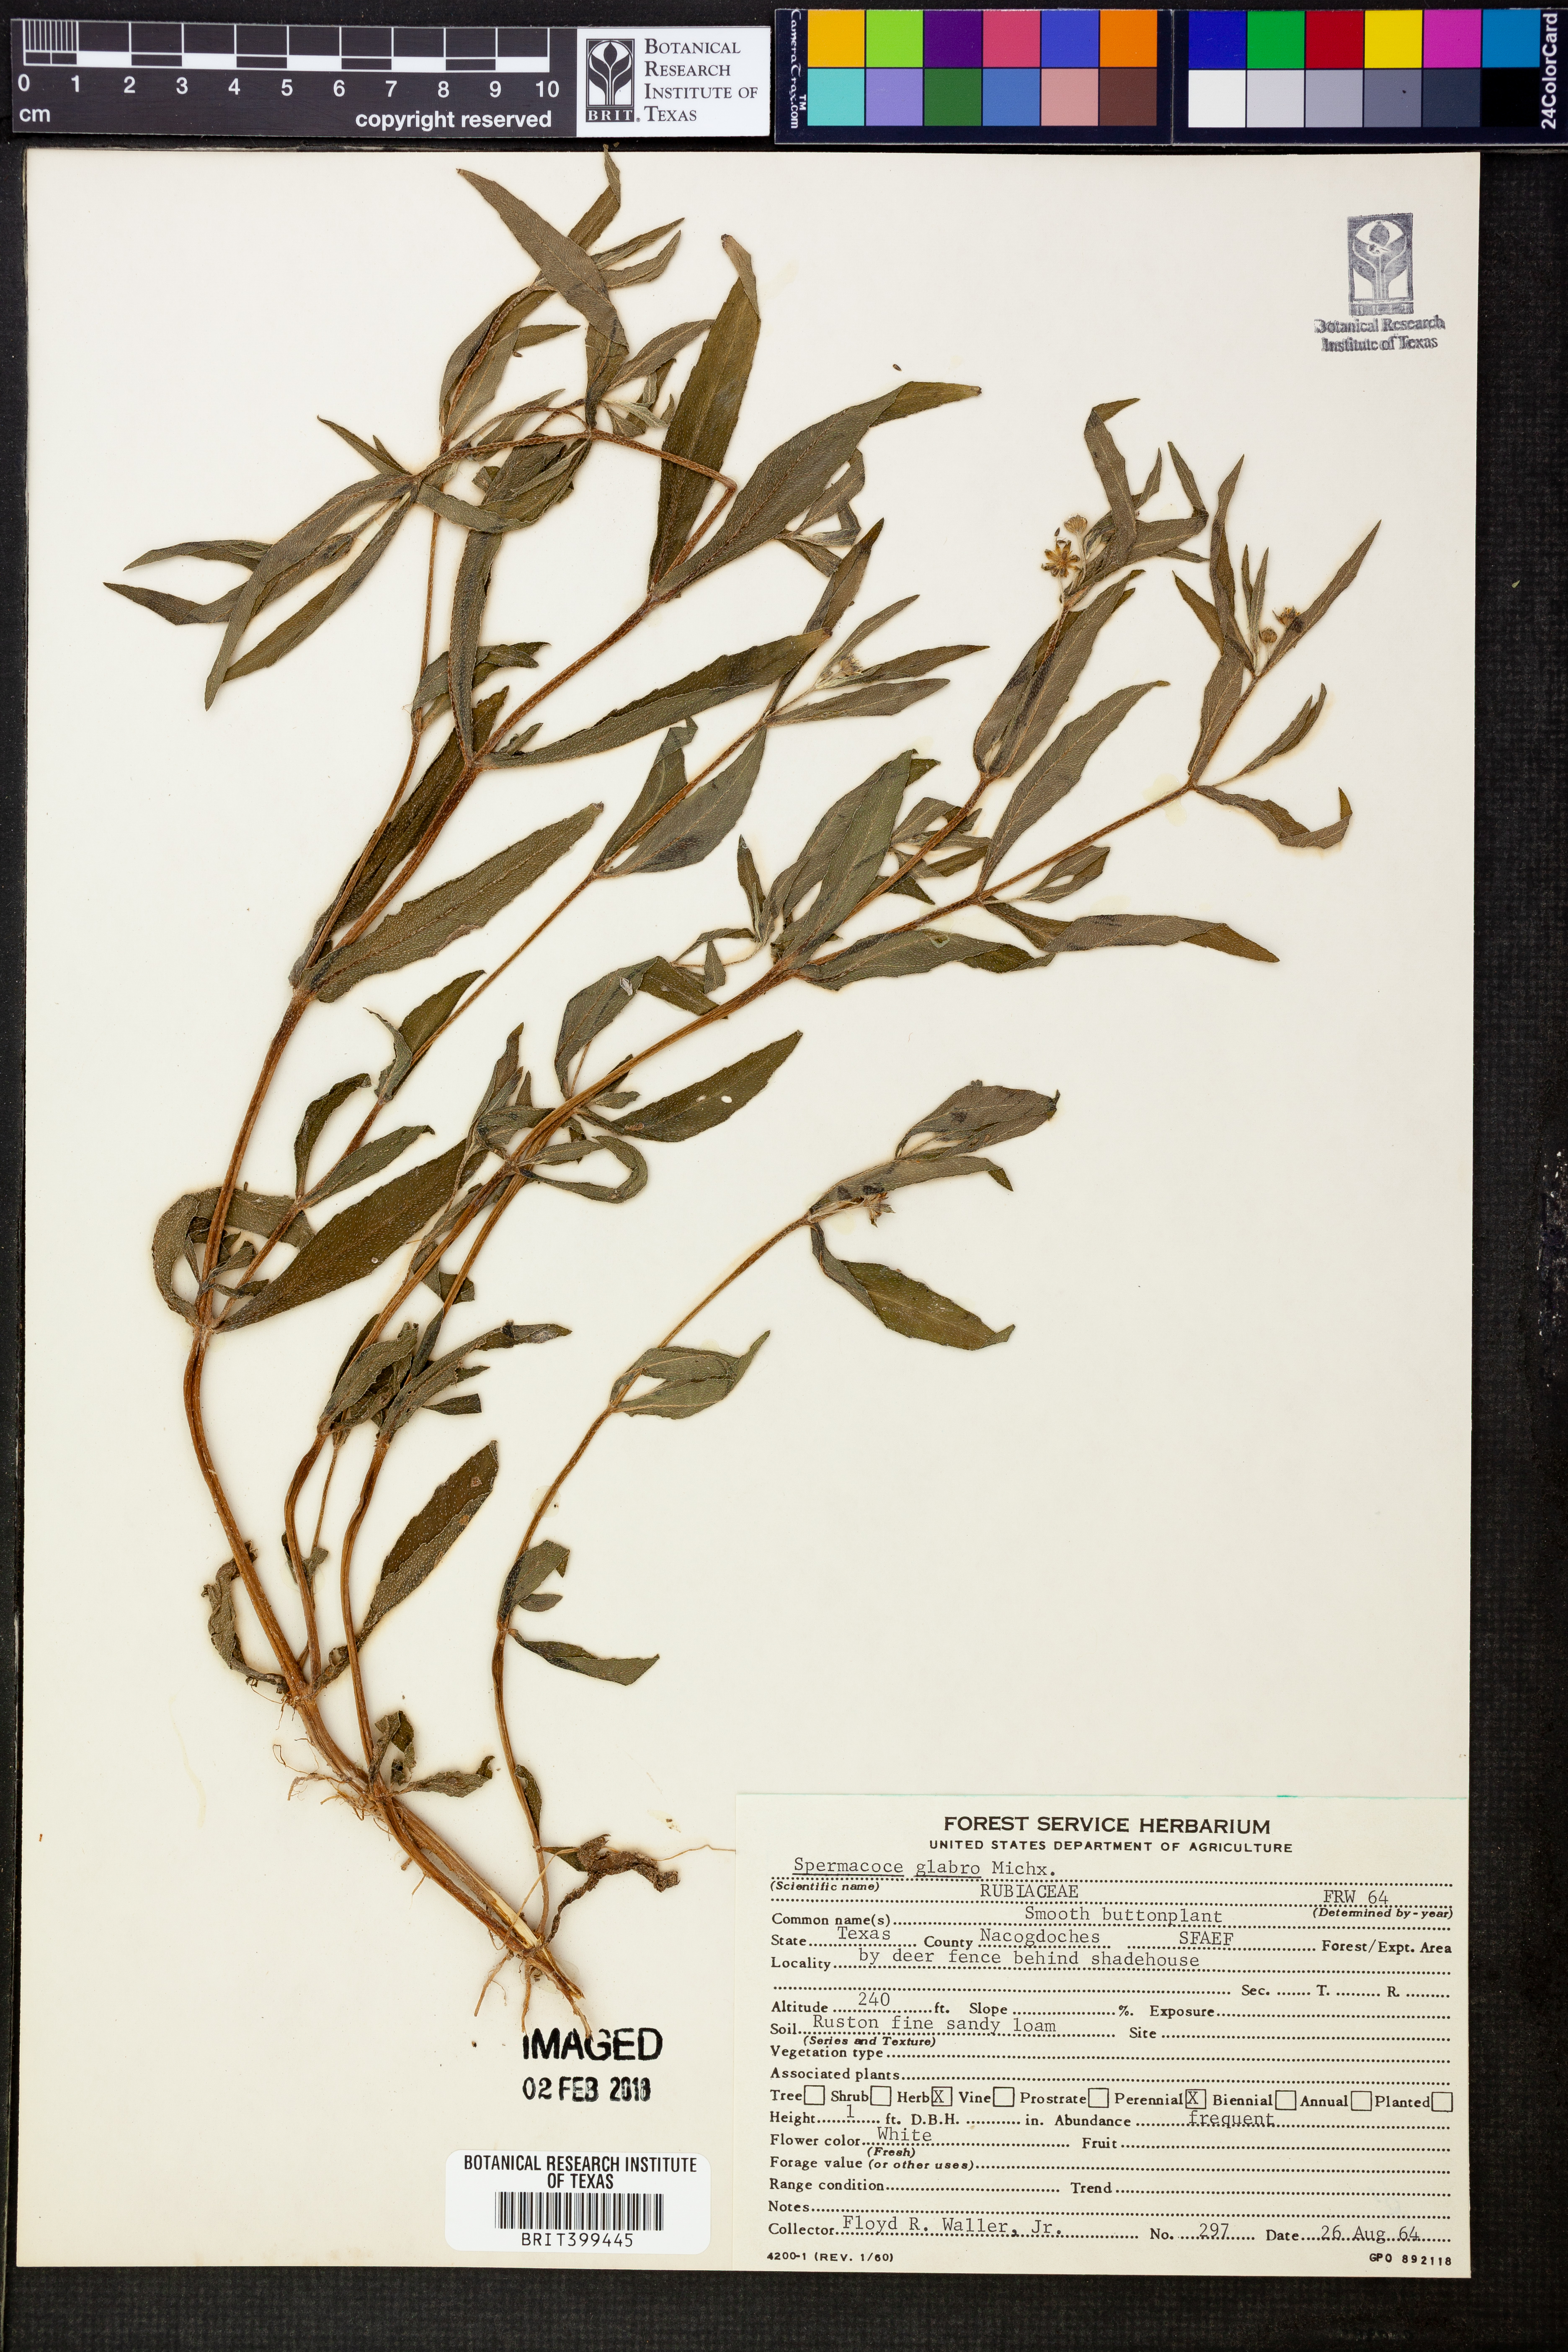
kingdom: Plantae
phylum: Tracheophyta
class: Magnoliopsida
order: Gentianales
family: Rubiaceae
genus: Spermacoce
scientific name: Spermacoce glabra
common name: Smooth buttonweed
